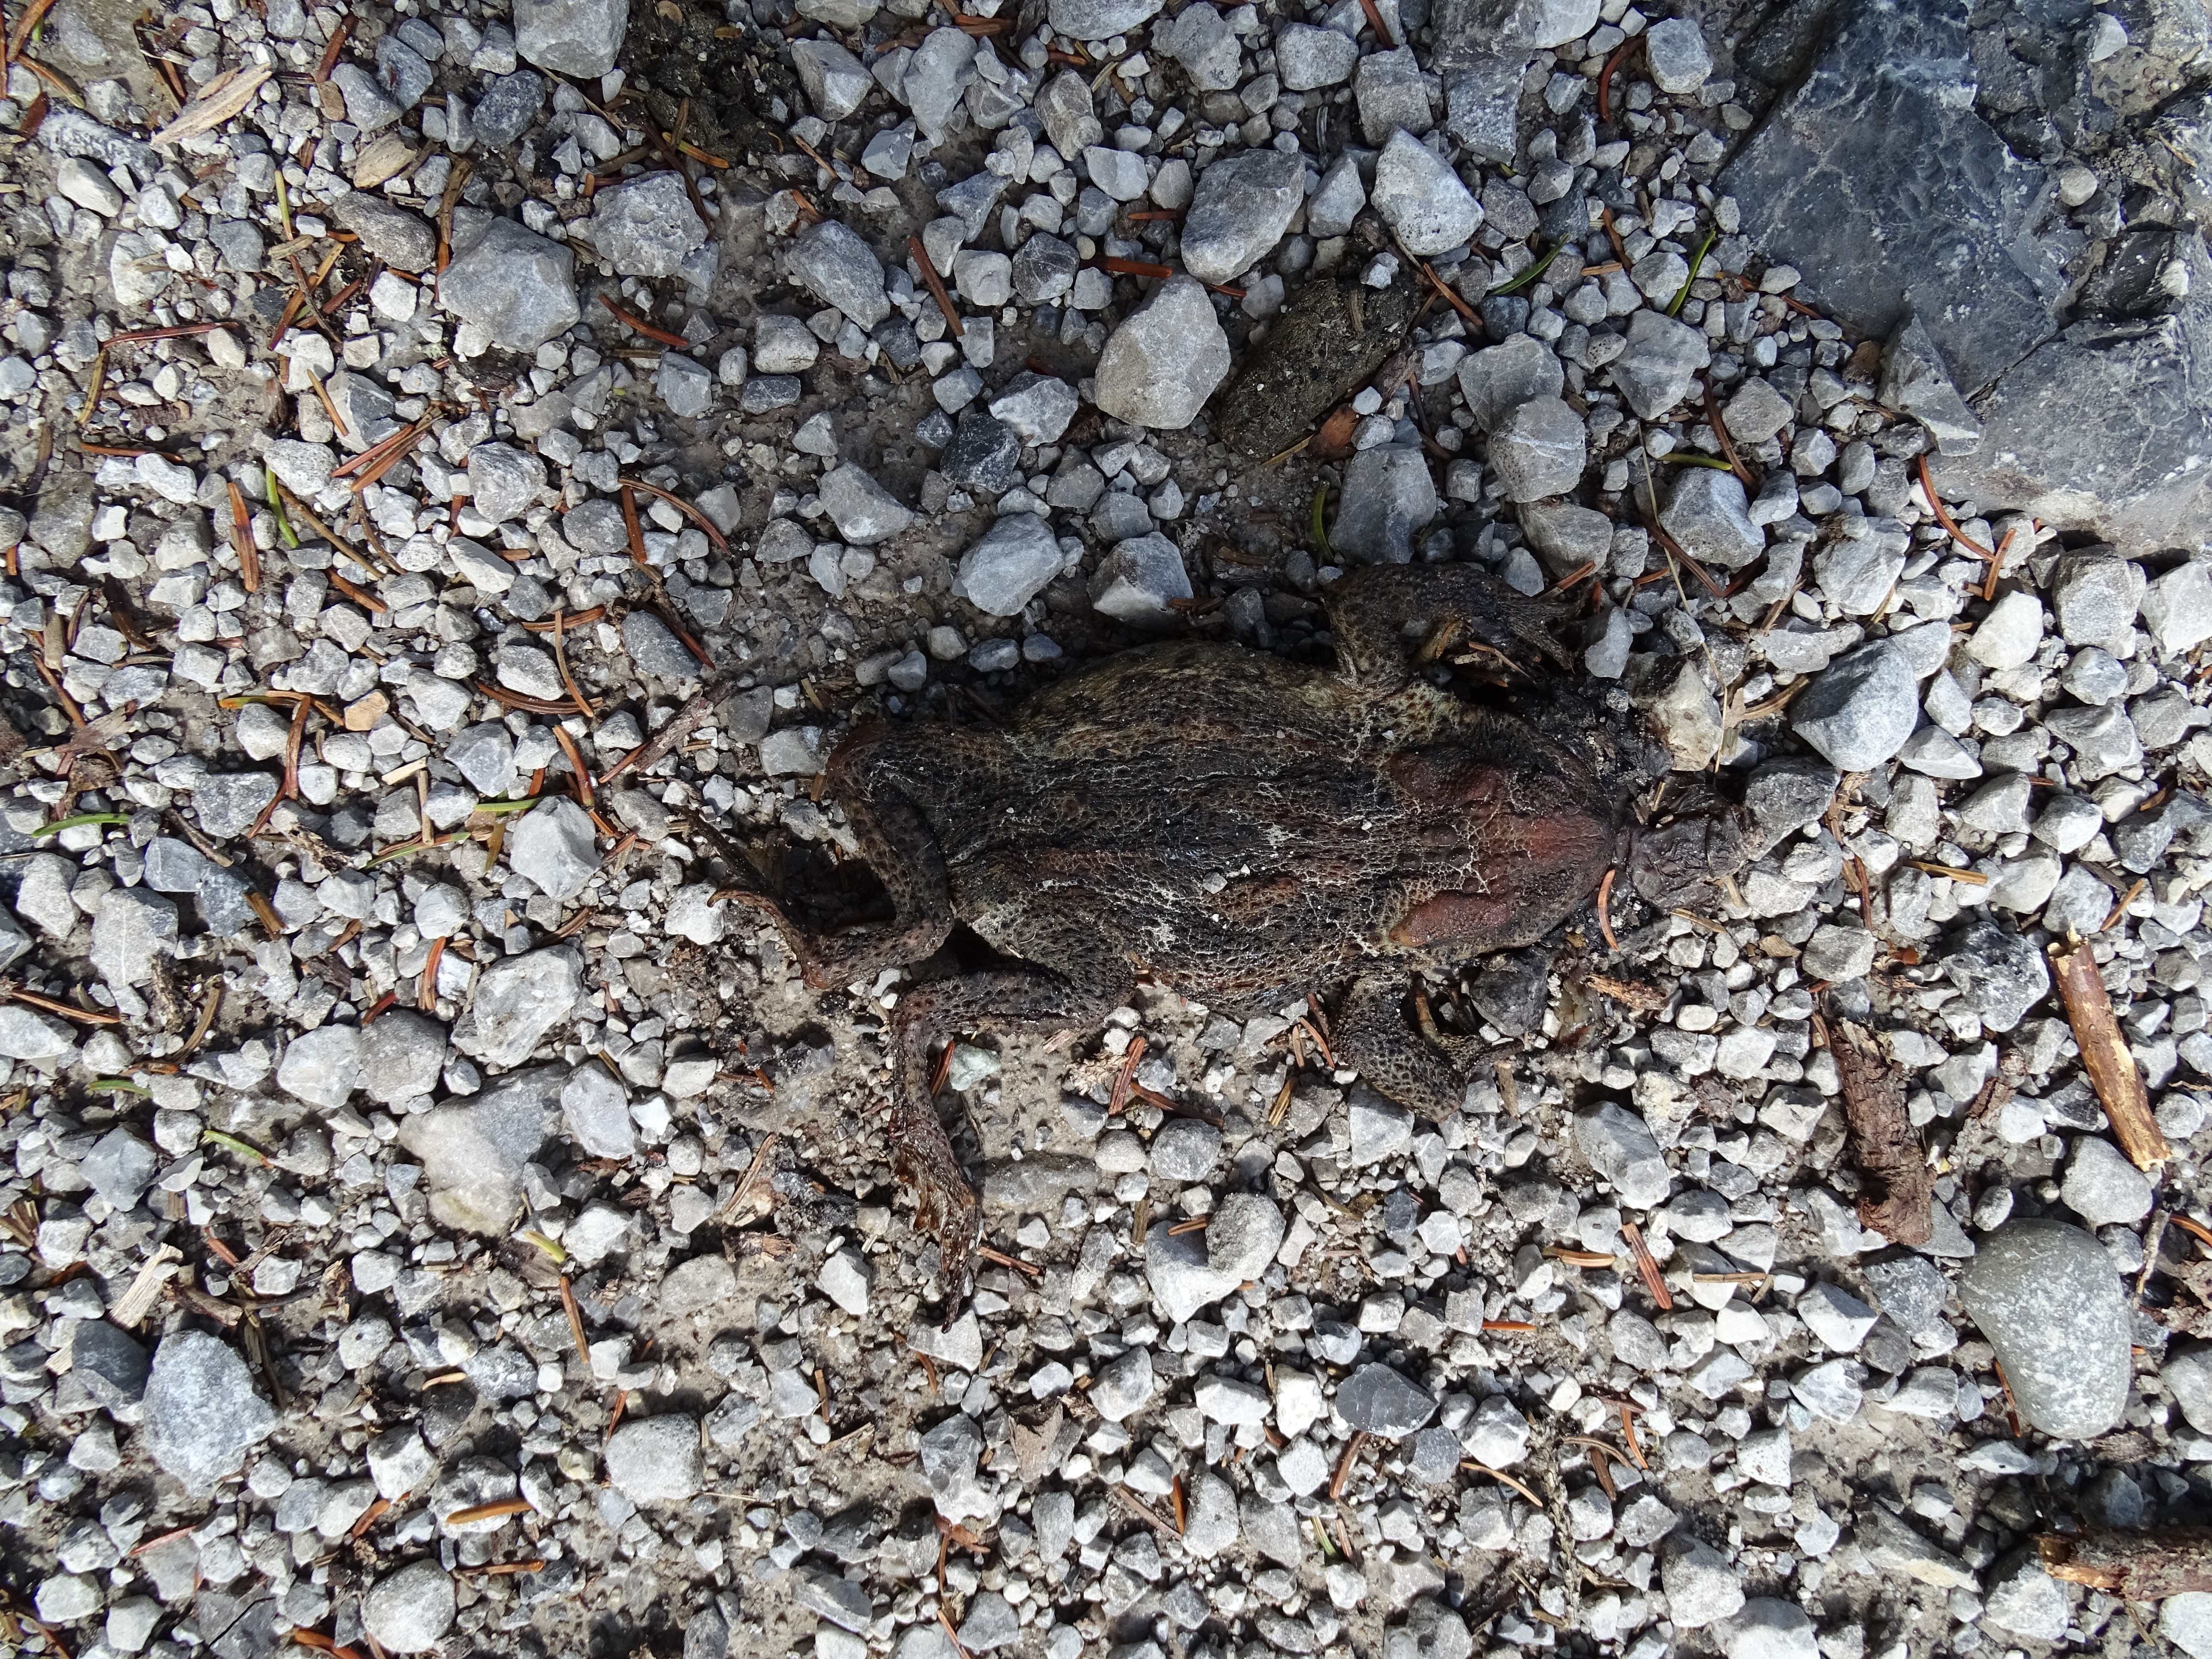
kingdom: Animalia
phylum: Chordata
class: Amphibia
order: Anura
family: Bufonidae
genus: Bufo
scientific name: Bufo bufo
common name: Common toad
